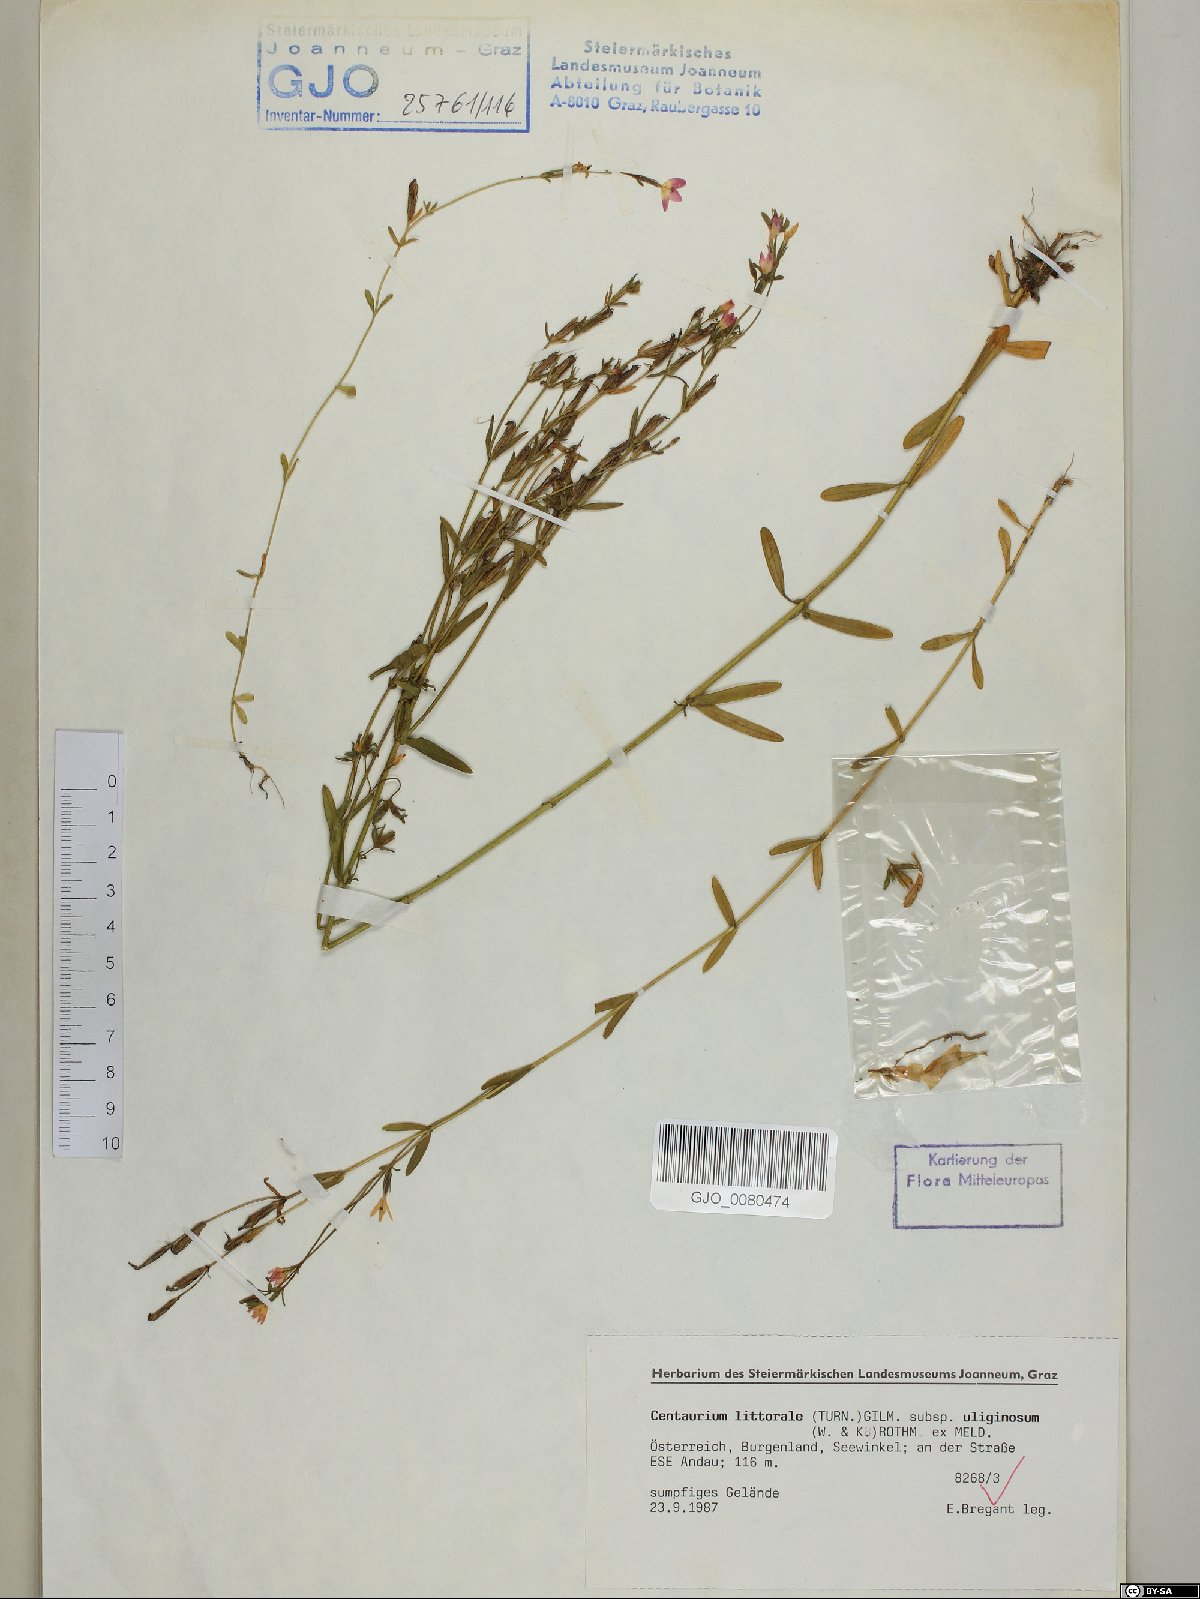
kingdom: Plantae
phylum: Tracheophyta
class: Magnoliopsida
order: Gentianales
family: Gentianaceae
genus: Centaurium
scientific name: Centaurium littorale
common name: Seaside centaury
